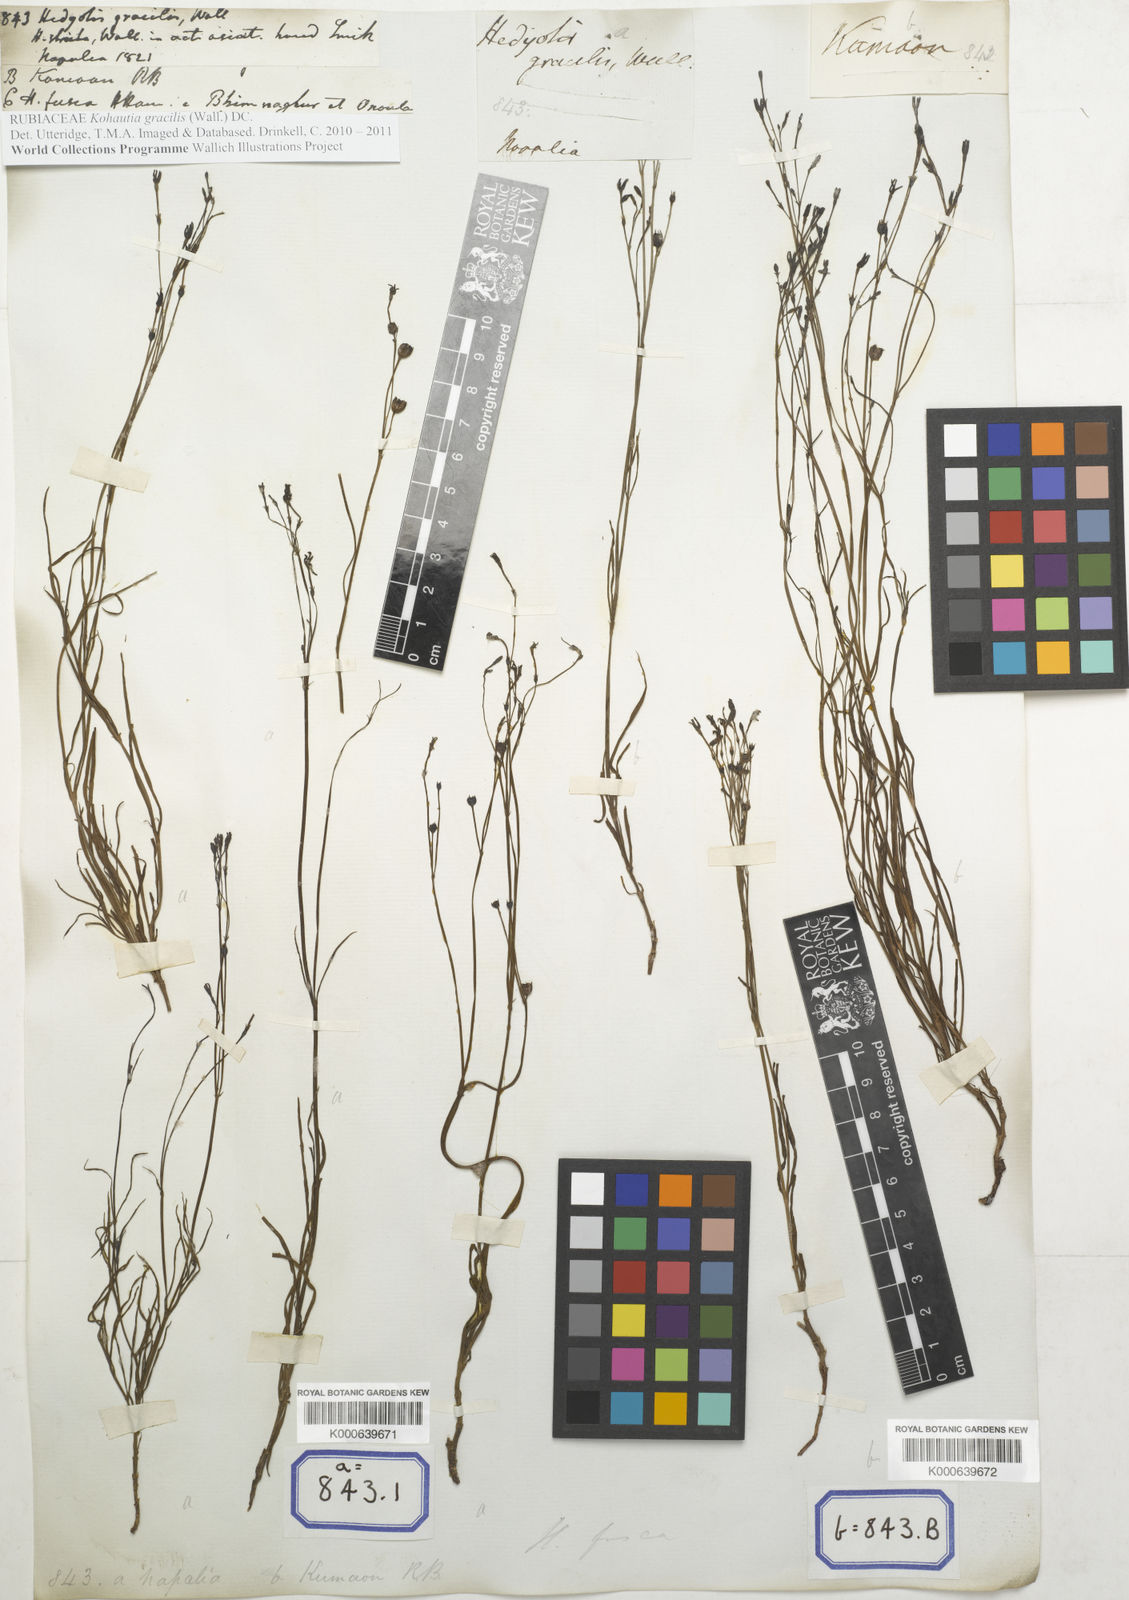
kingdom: Plantae
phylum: Tracheophyta
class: Magnoliopsida
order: Gentianales
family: Rubiaceae
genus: Kohautia
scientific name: Kohautia gracilis
